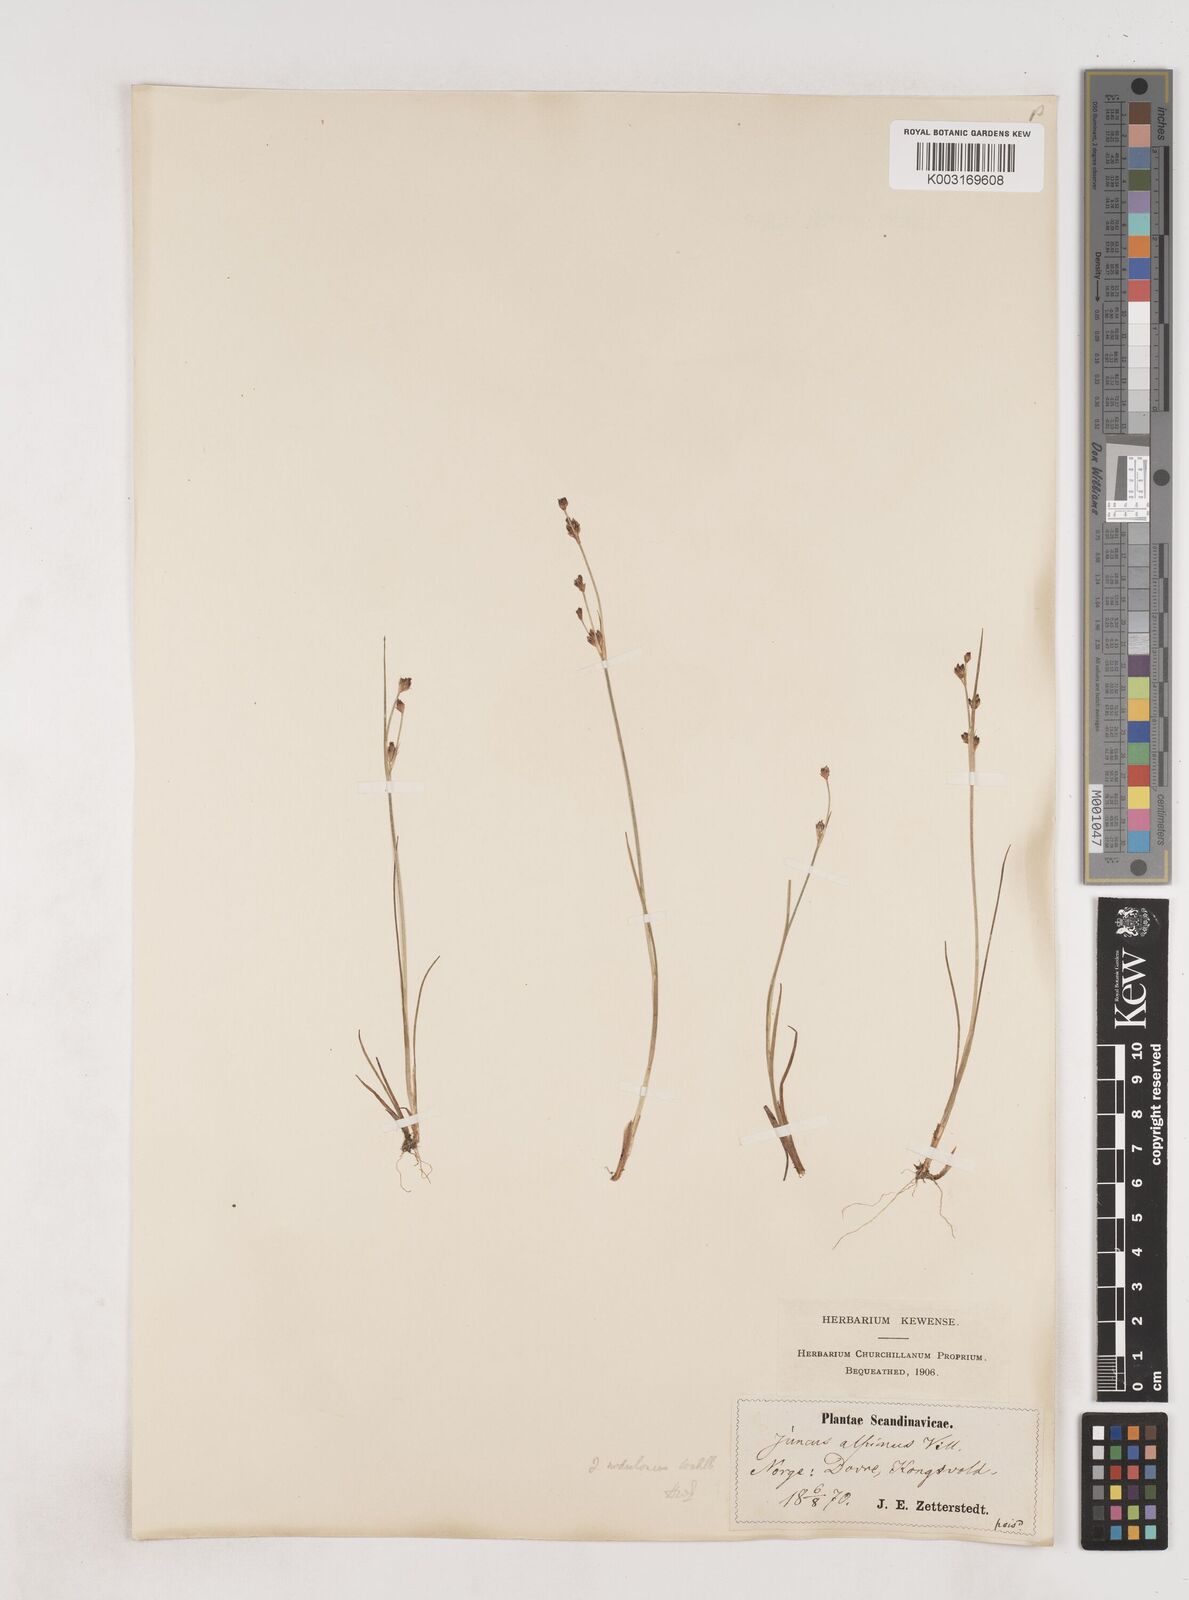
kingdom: Plantae
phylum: Tracheophyta
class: Liliopsida
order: Poales
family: Juncaceae
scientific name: Juncaceae
